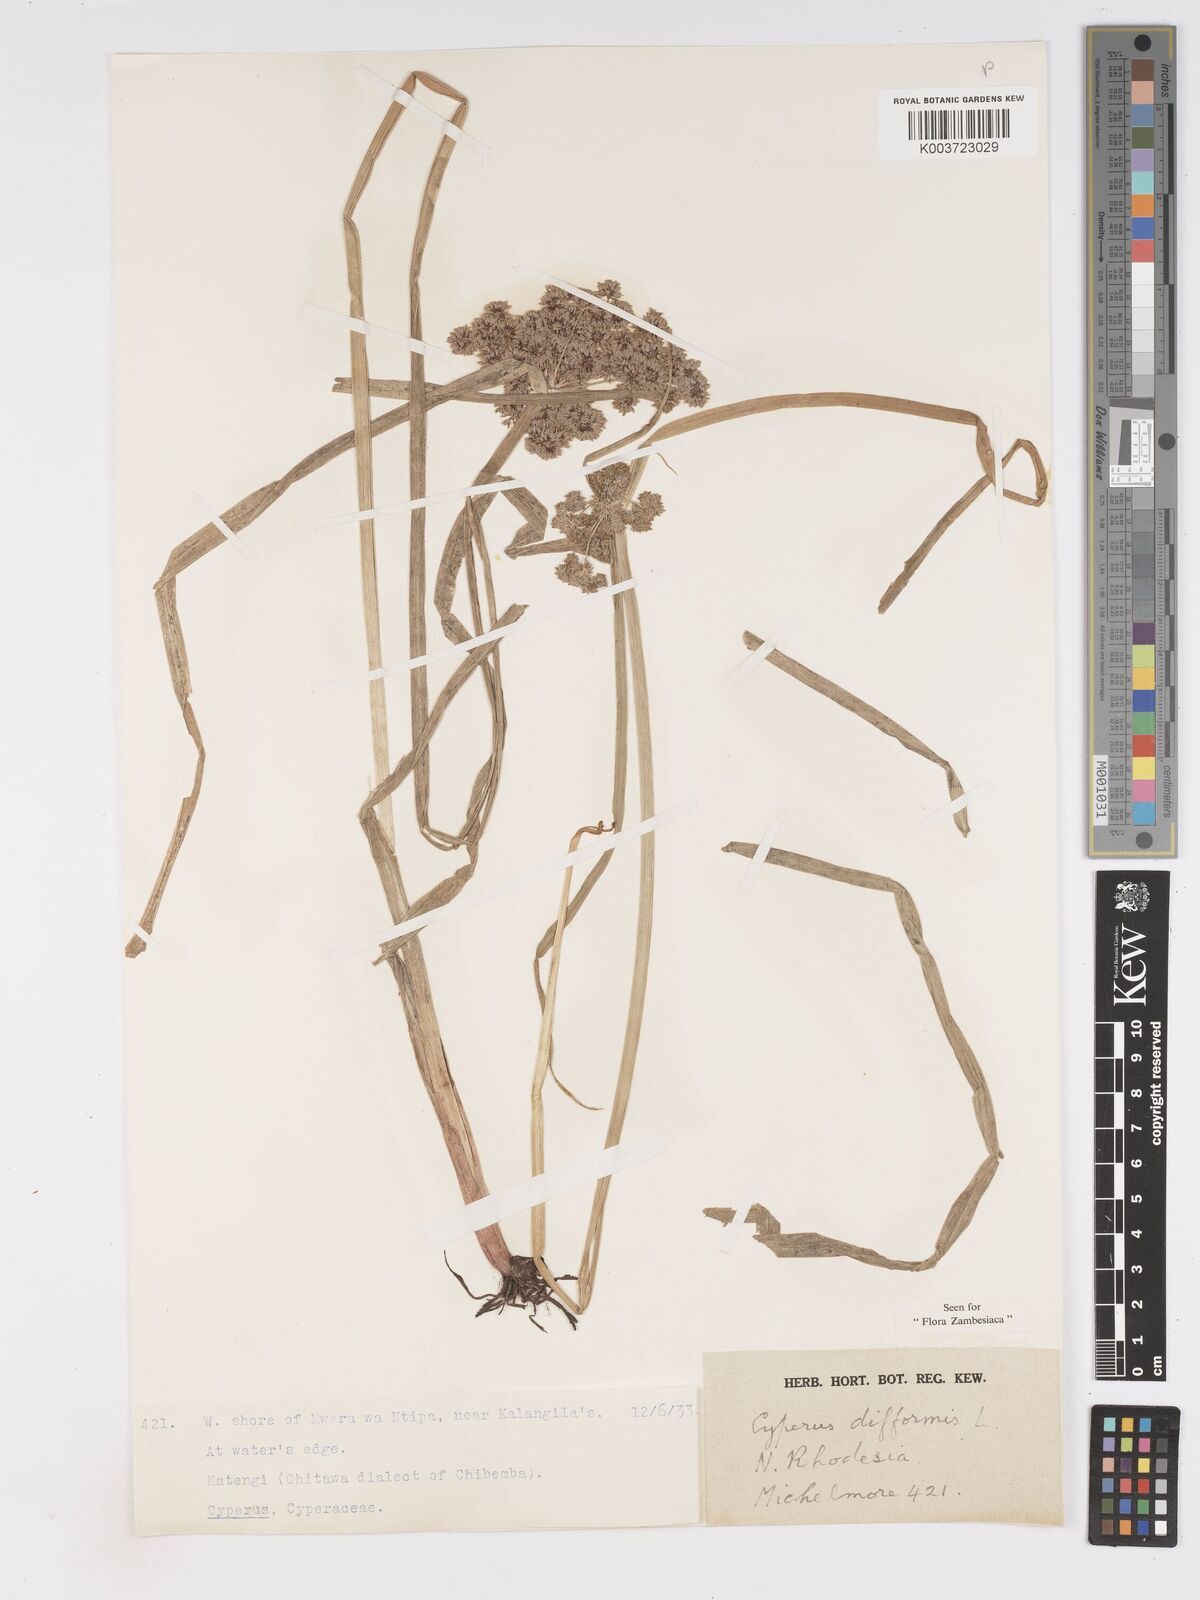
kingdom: Plantae
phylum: Tracheophyta
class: Liliopsida
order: Poales
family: Cyperaceae
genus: Cyperus
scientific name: Cyperus difformis
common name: Variable flatsedge
